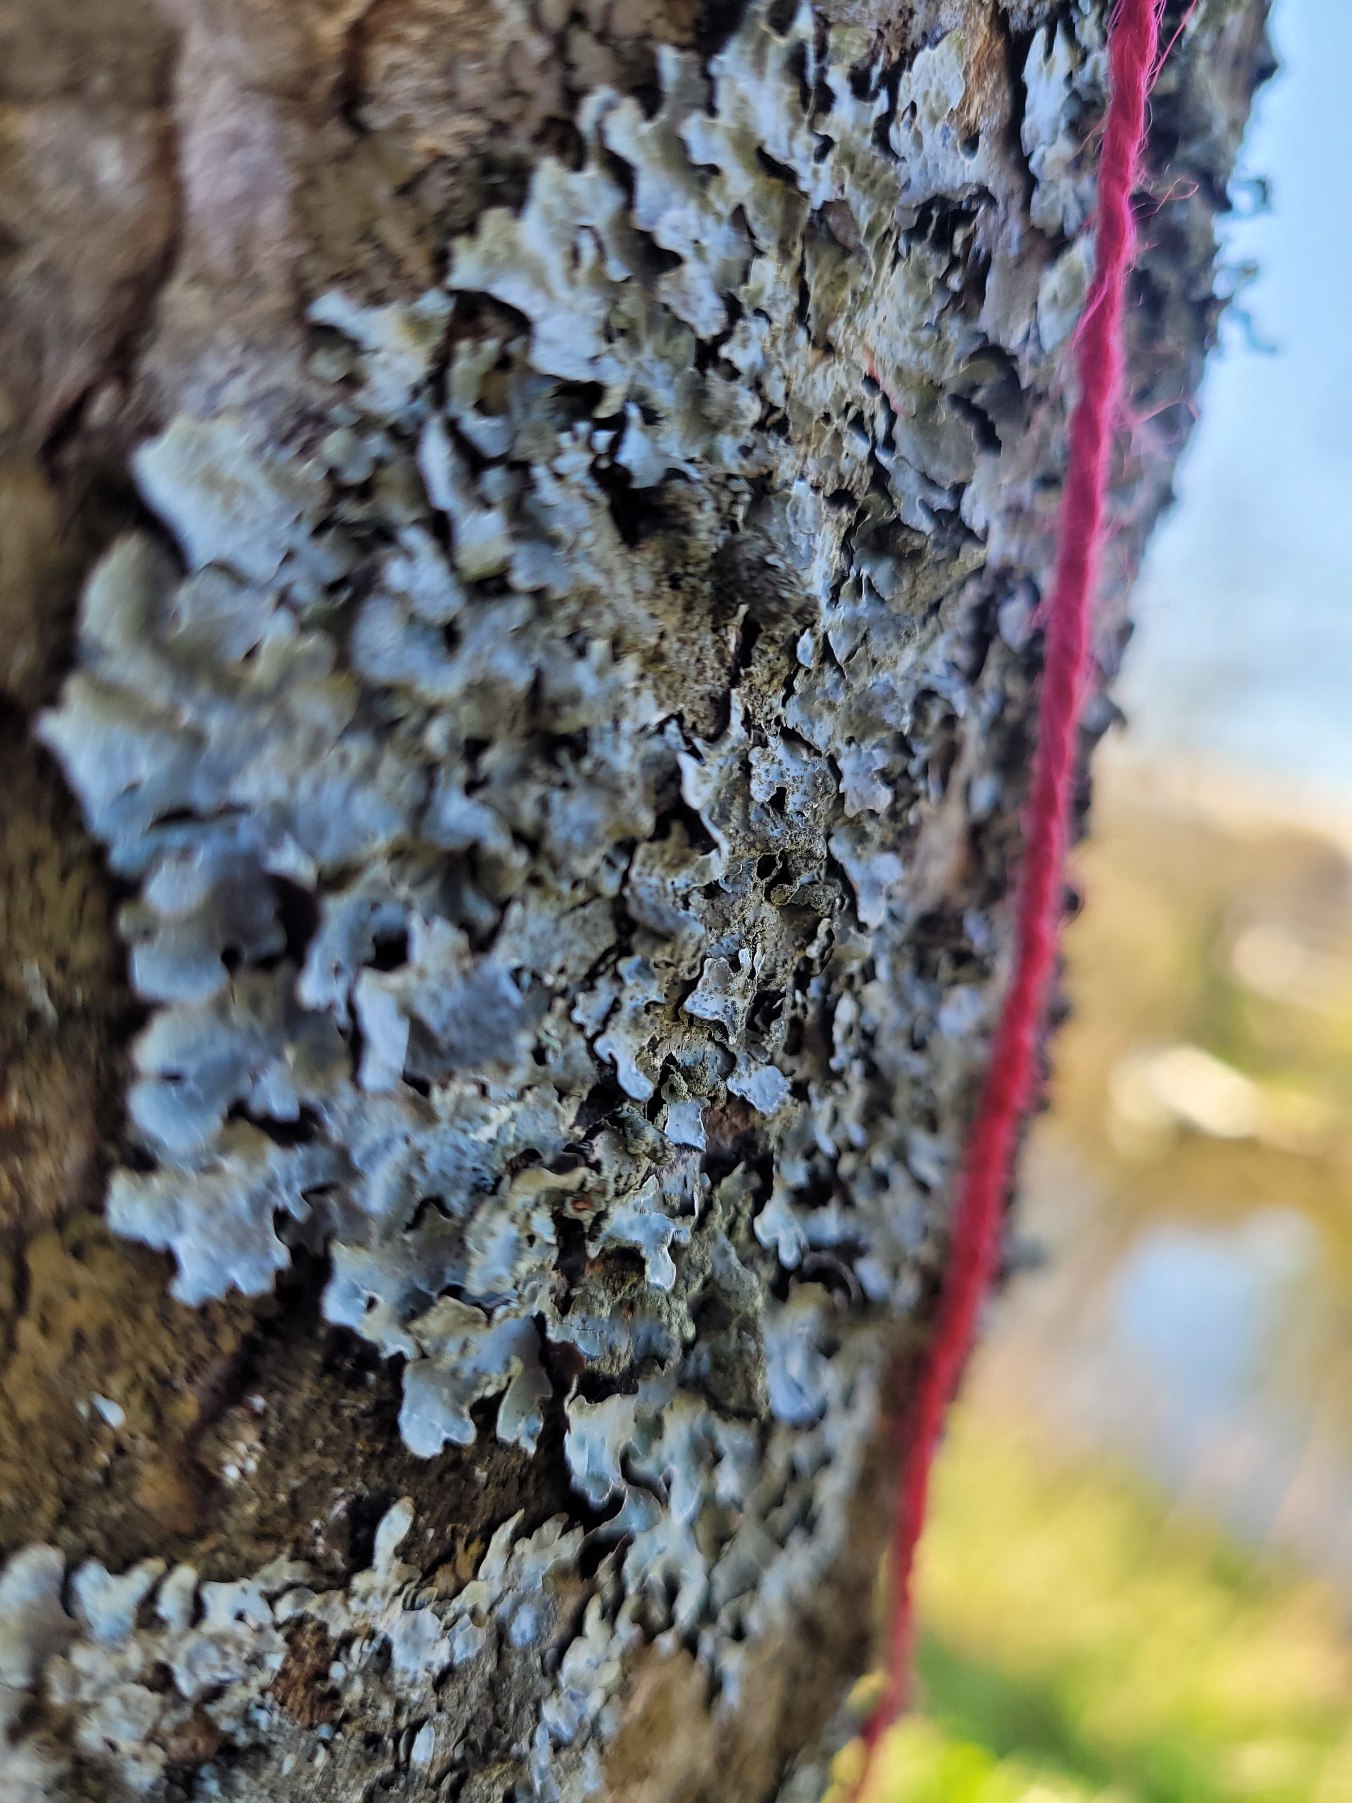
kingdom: Fungi
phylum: Ascomycota
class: Lecanoromycetes
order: Lecanorales
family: Parmeliaceae
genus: Parmelia
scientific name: Parmelia sulcata
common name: Rynket skållav
